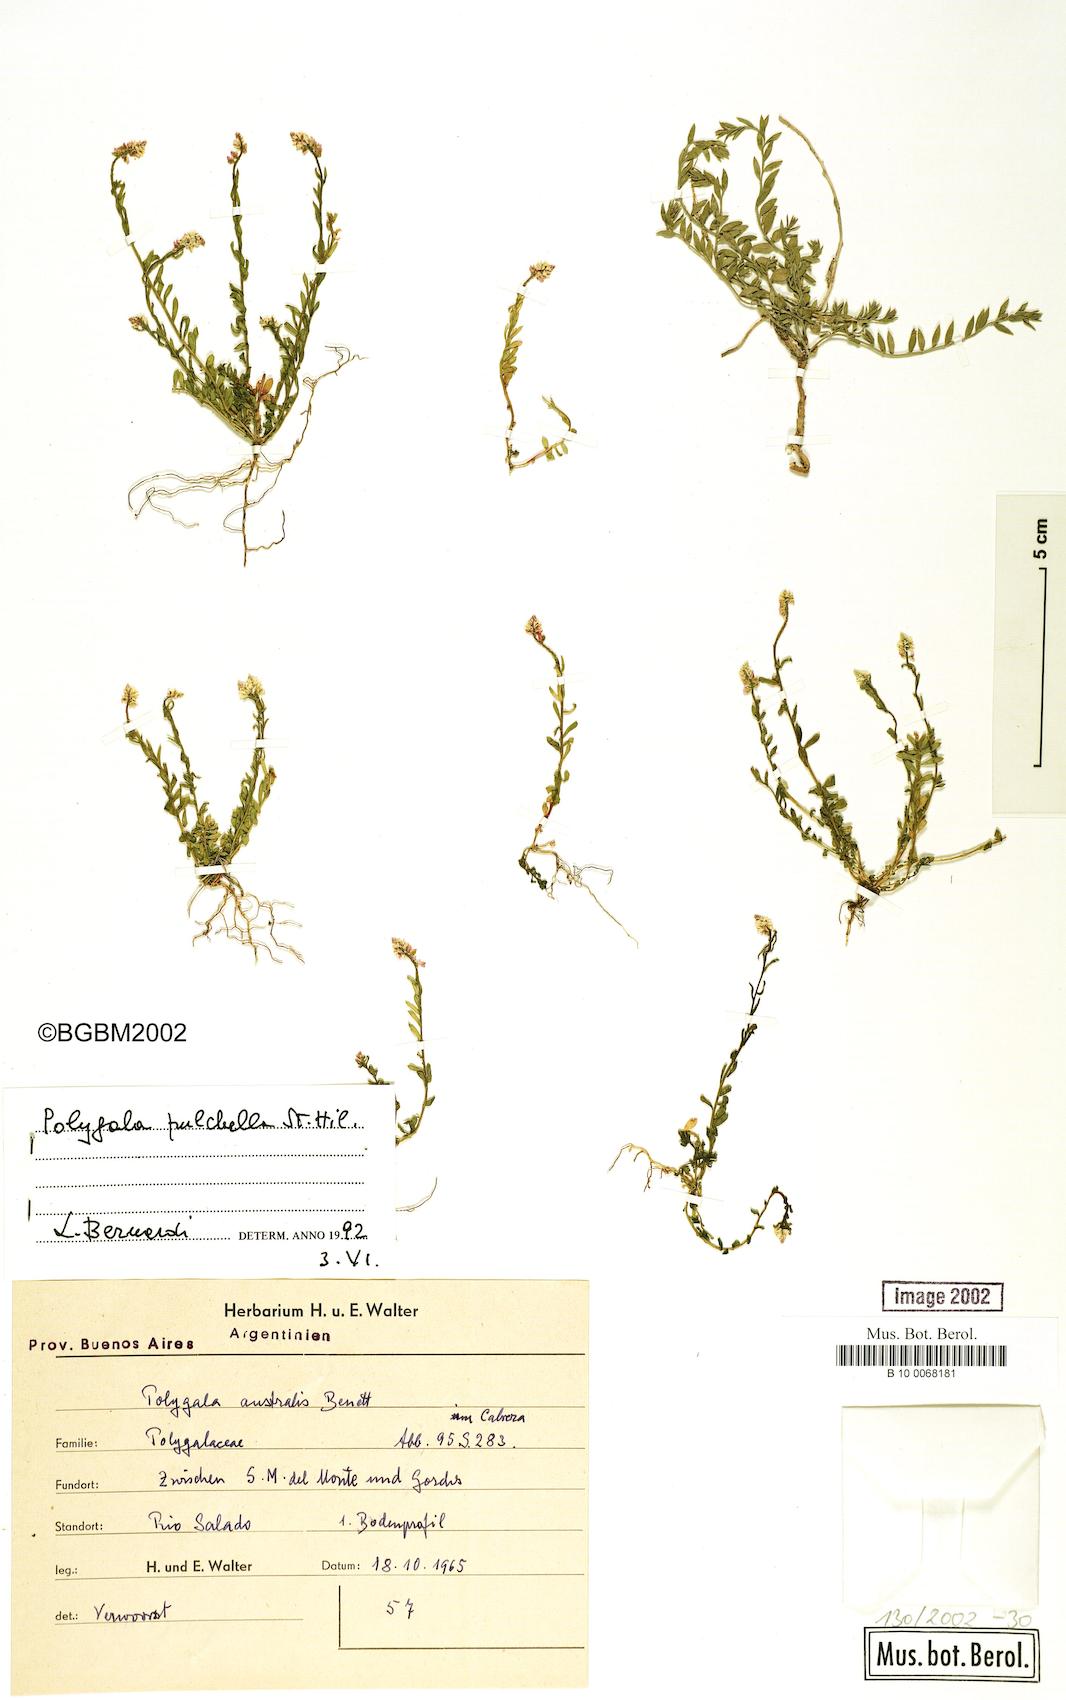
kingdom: Plantae
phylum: Tracheophyta
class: Magnoliopsida
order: Fabales
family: Polygalaceae
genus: Polygala
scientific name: Polygala pulchella
